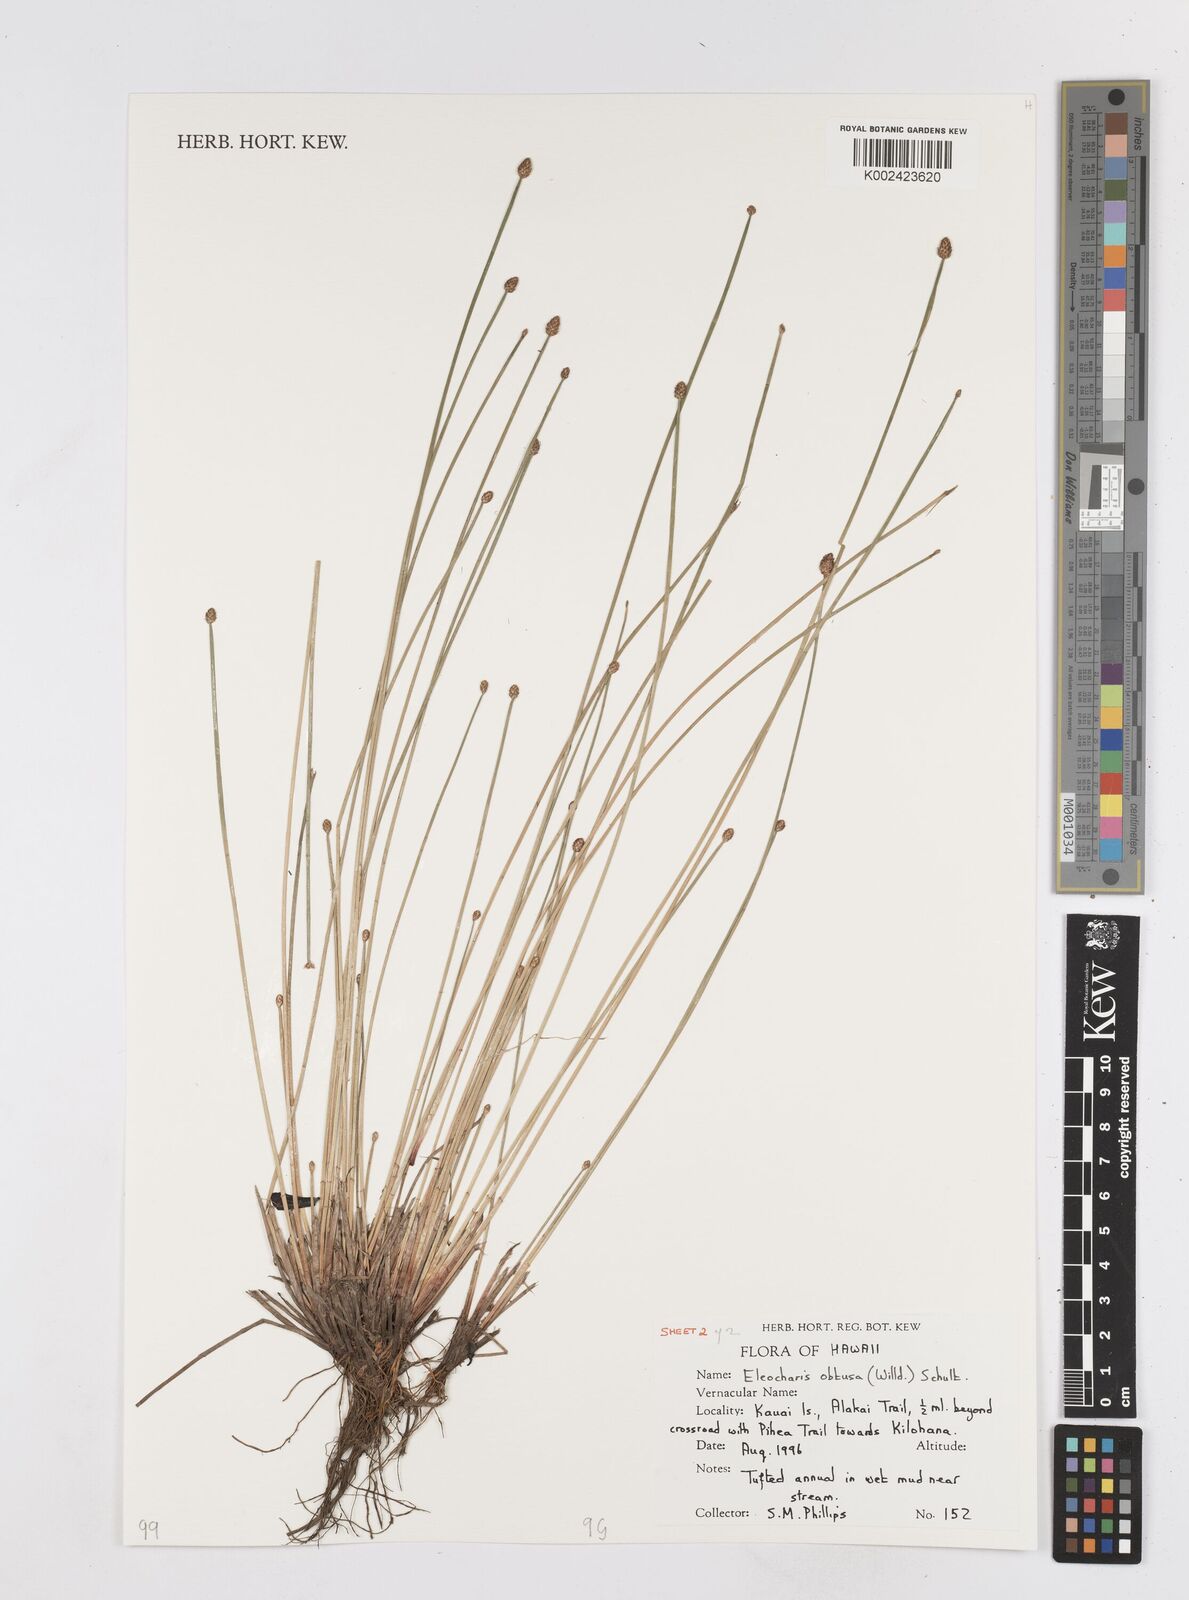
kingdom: Plantae
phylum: Tracheophyta
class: Liliopsida
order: Poales
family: Cyperaceae
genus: Eleocharis
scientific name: Eleocharis obtusa
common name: Blunt spikerush
